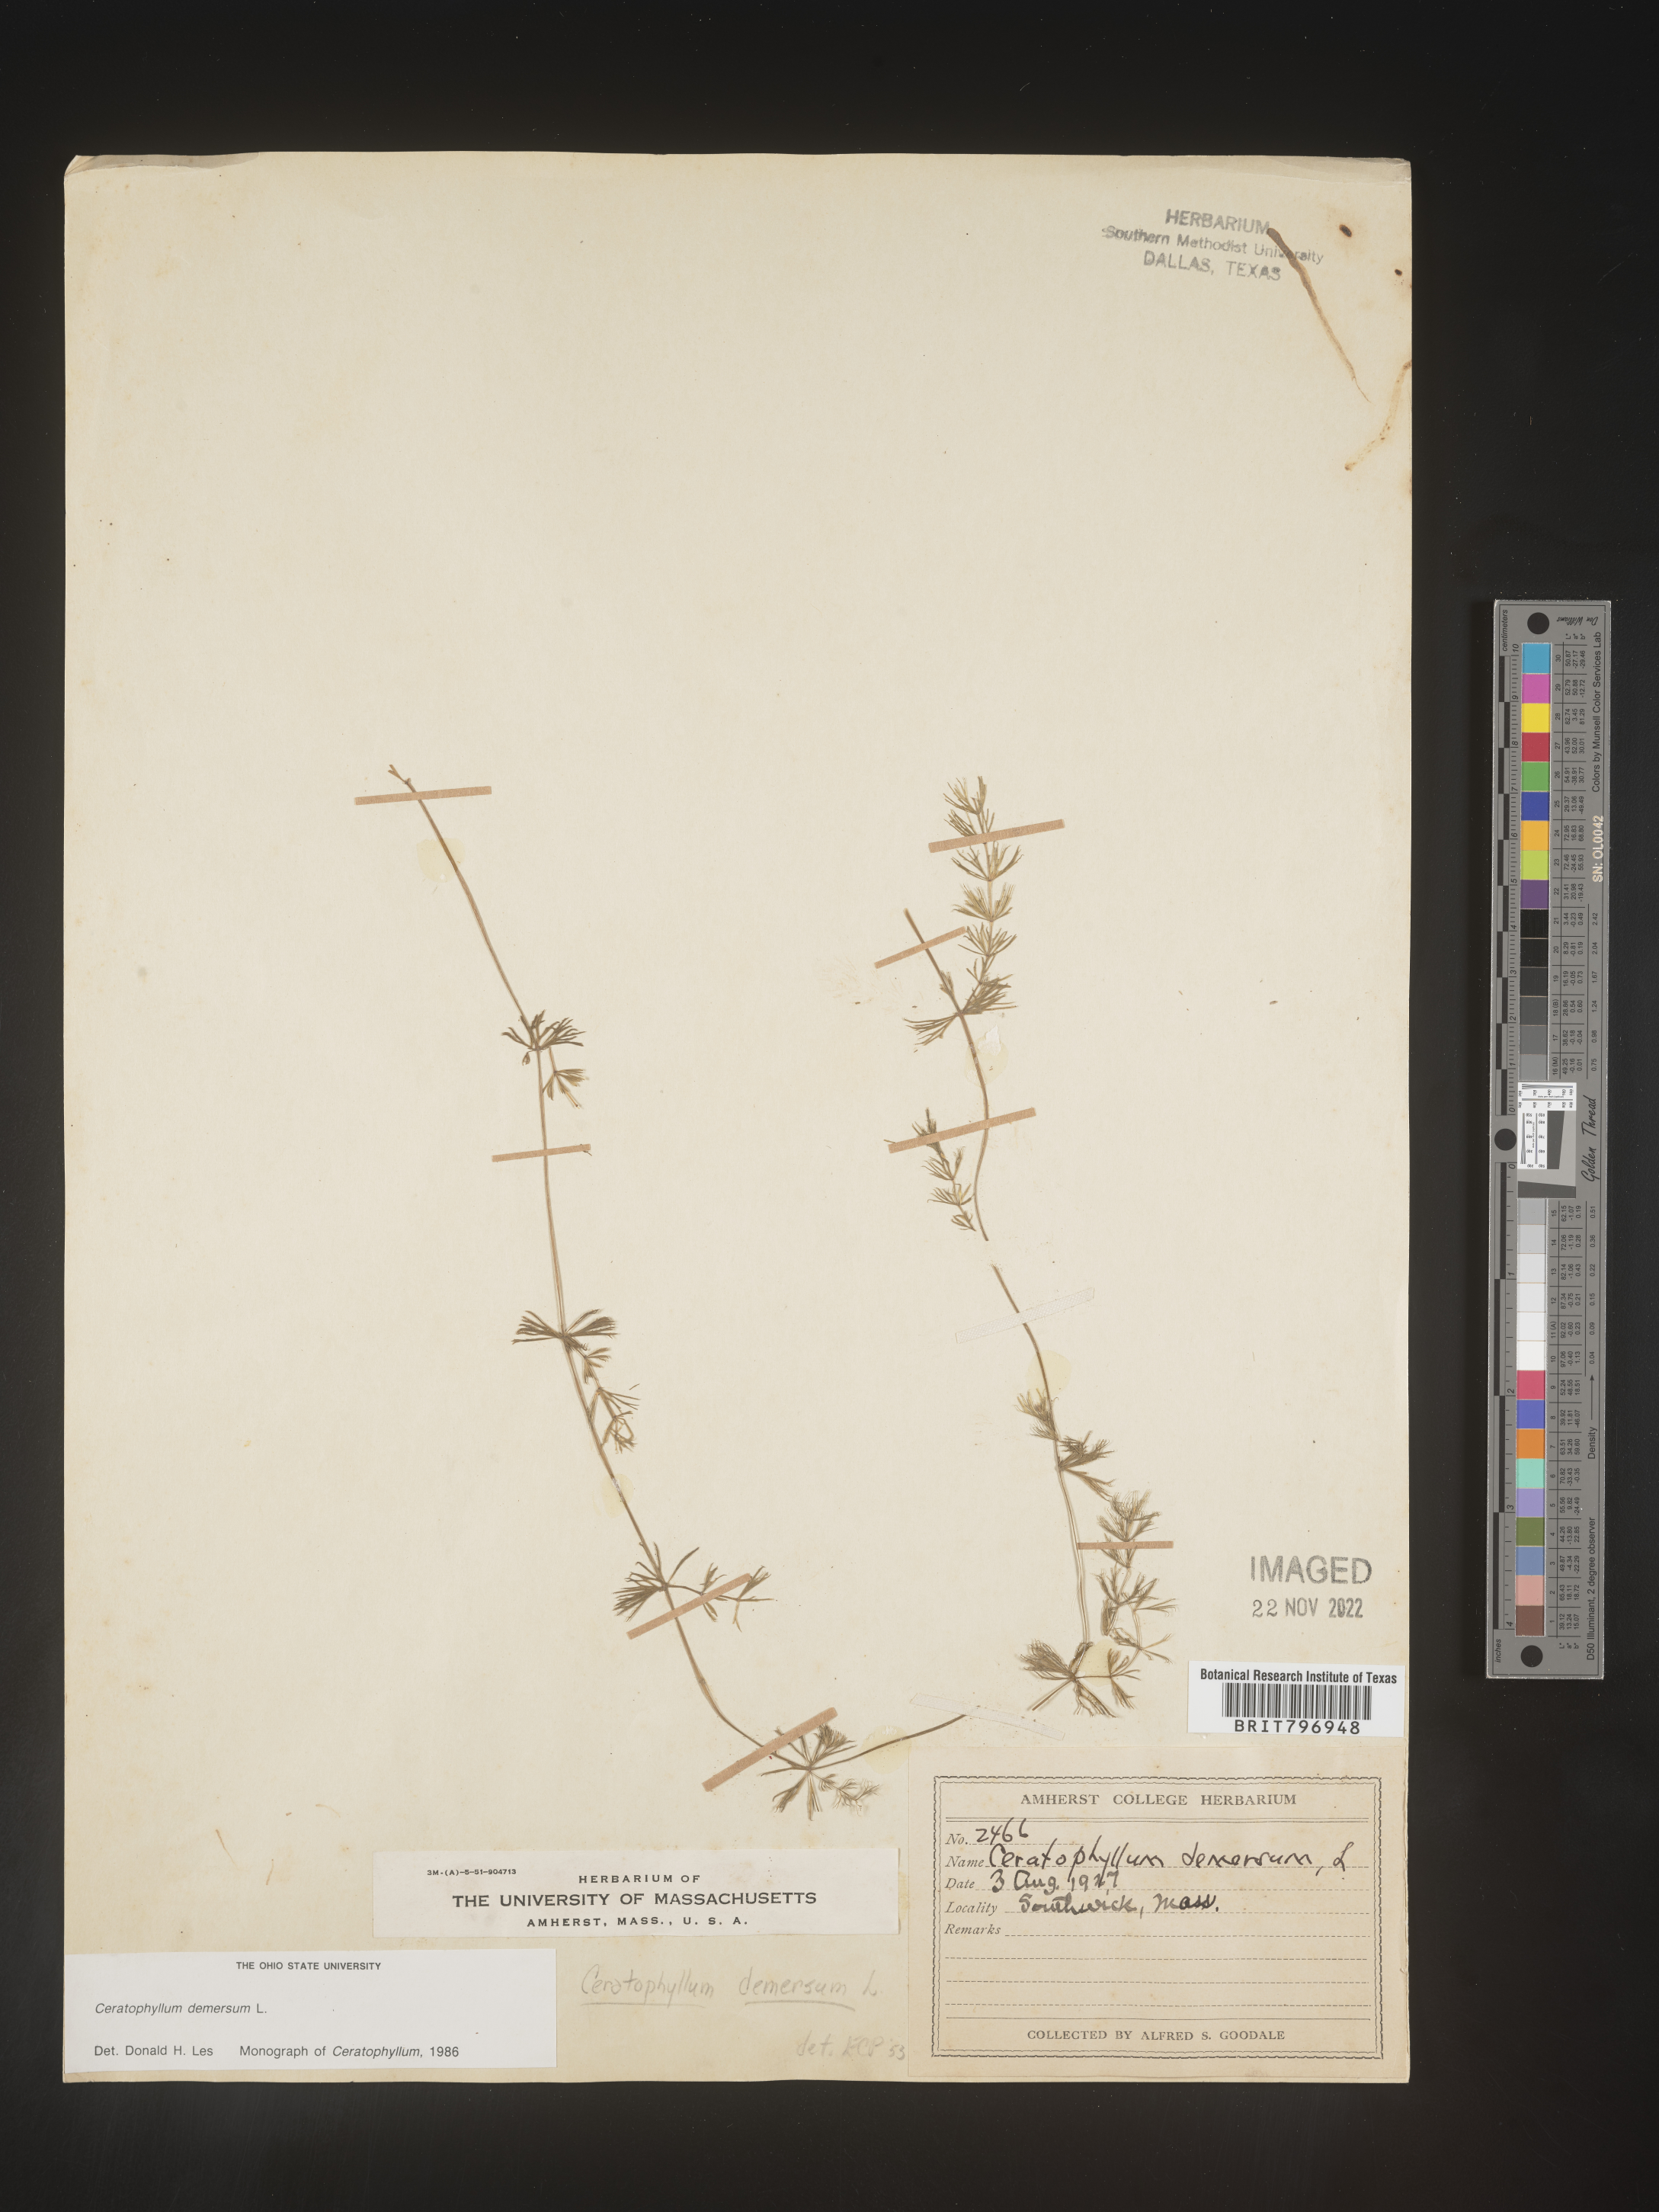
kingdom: Plantae
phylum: Tracheophyta
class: Magnoliopsida
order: Ceratophyllales
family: Ceratophyllaceae
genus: Ceratophyllum
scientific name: Ceratophyllum demersum
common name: Rigid hornwort
